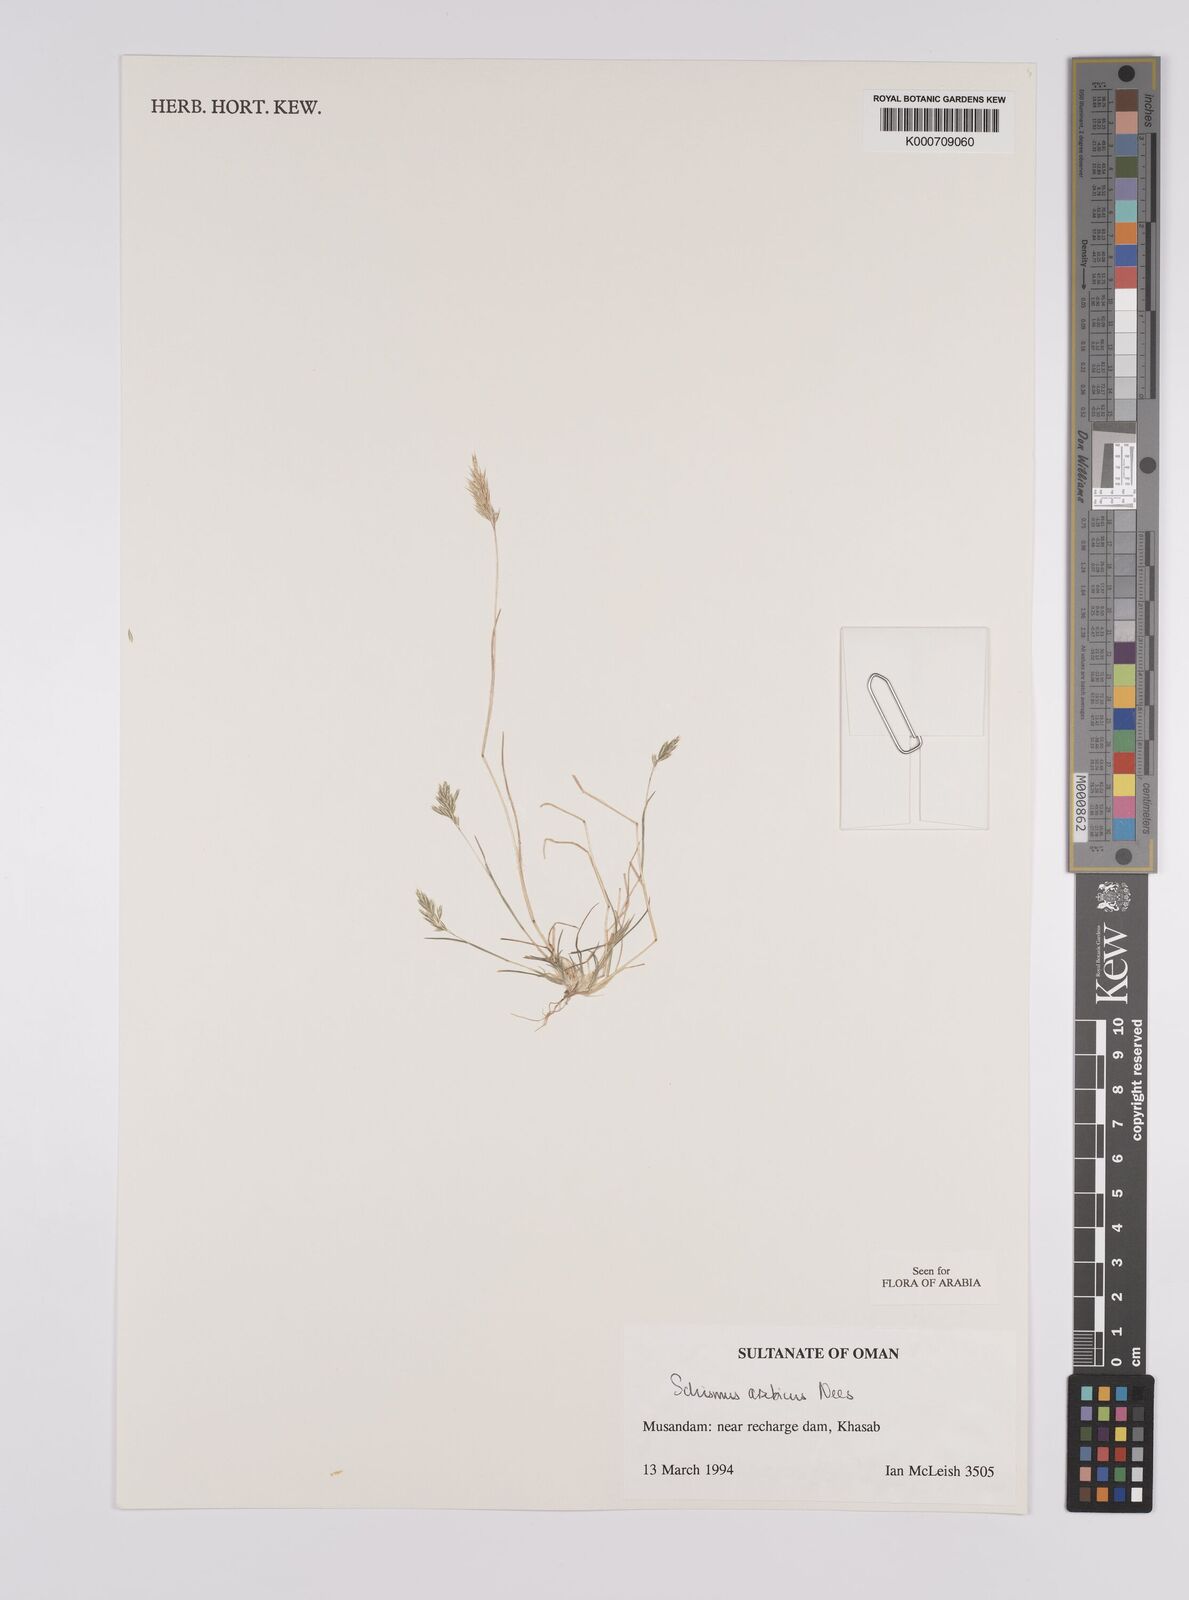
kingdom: Plantae
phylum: Tracheophyta
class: Liliopsida
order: Poales
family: Poaceae
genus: Schismus
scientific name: Schismus arabicus
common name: Arabian schismus
